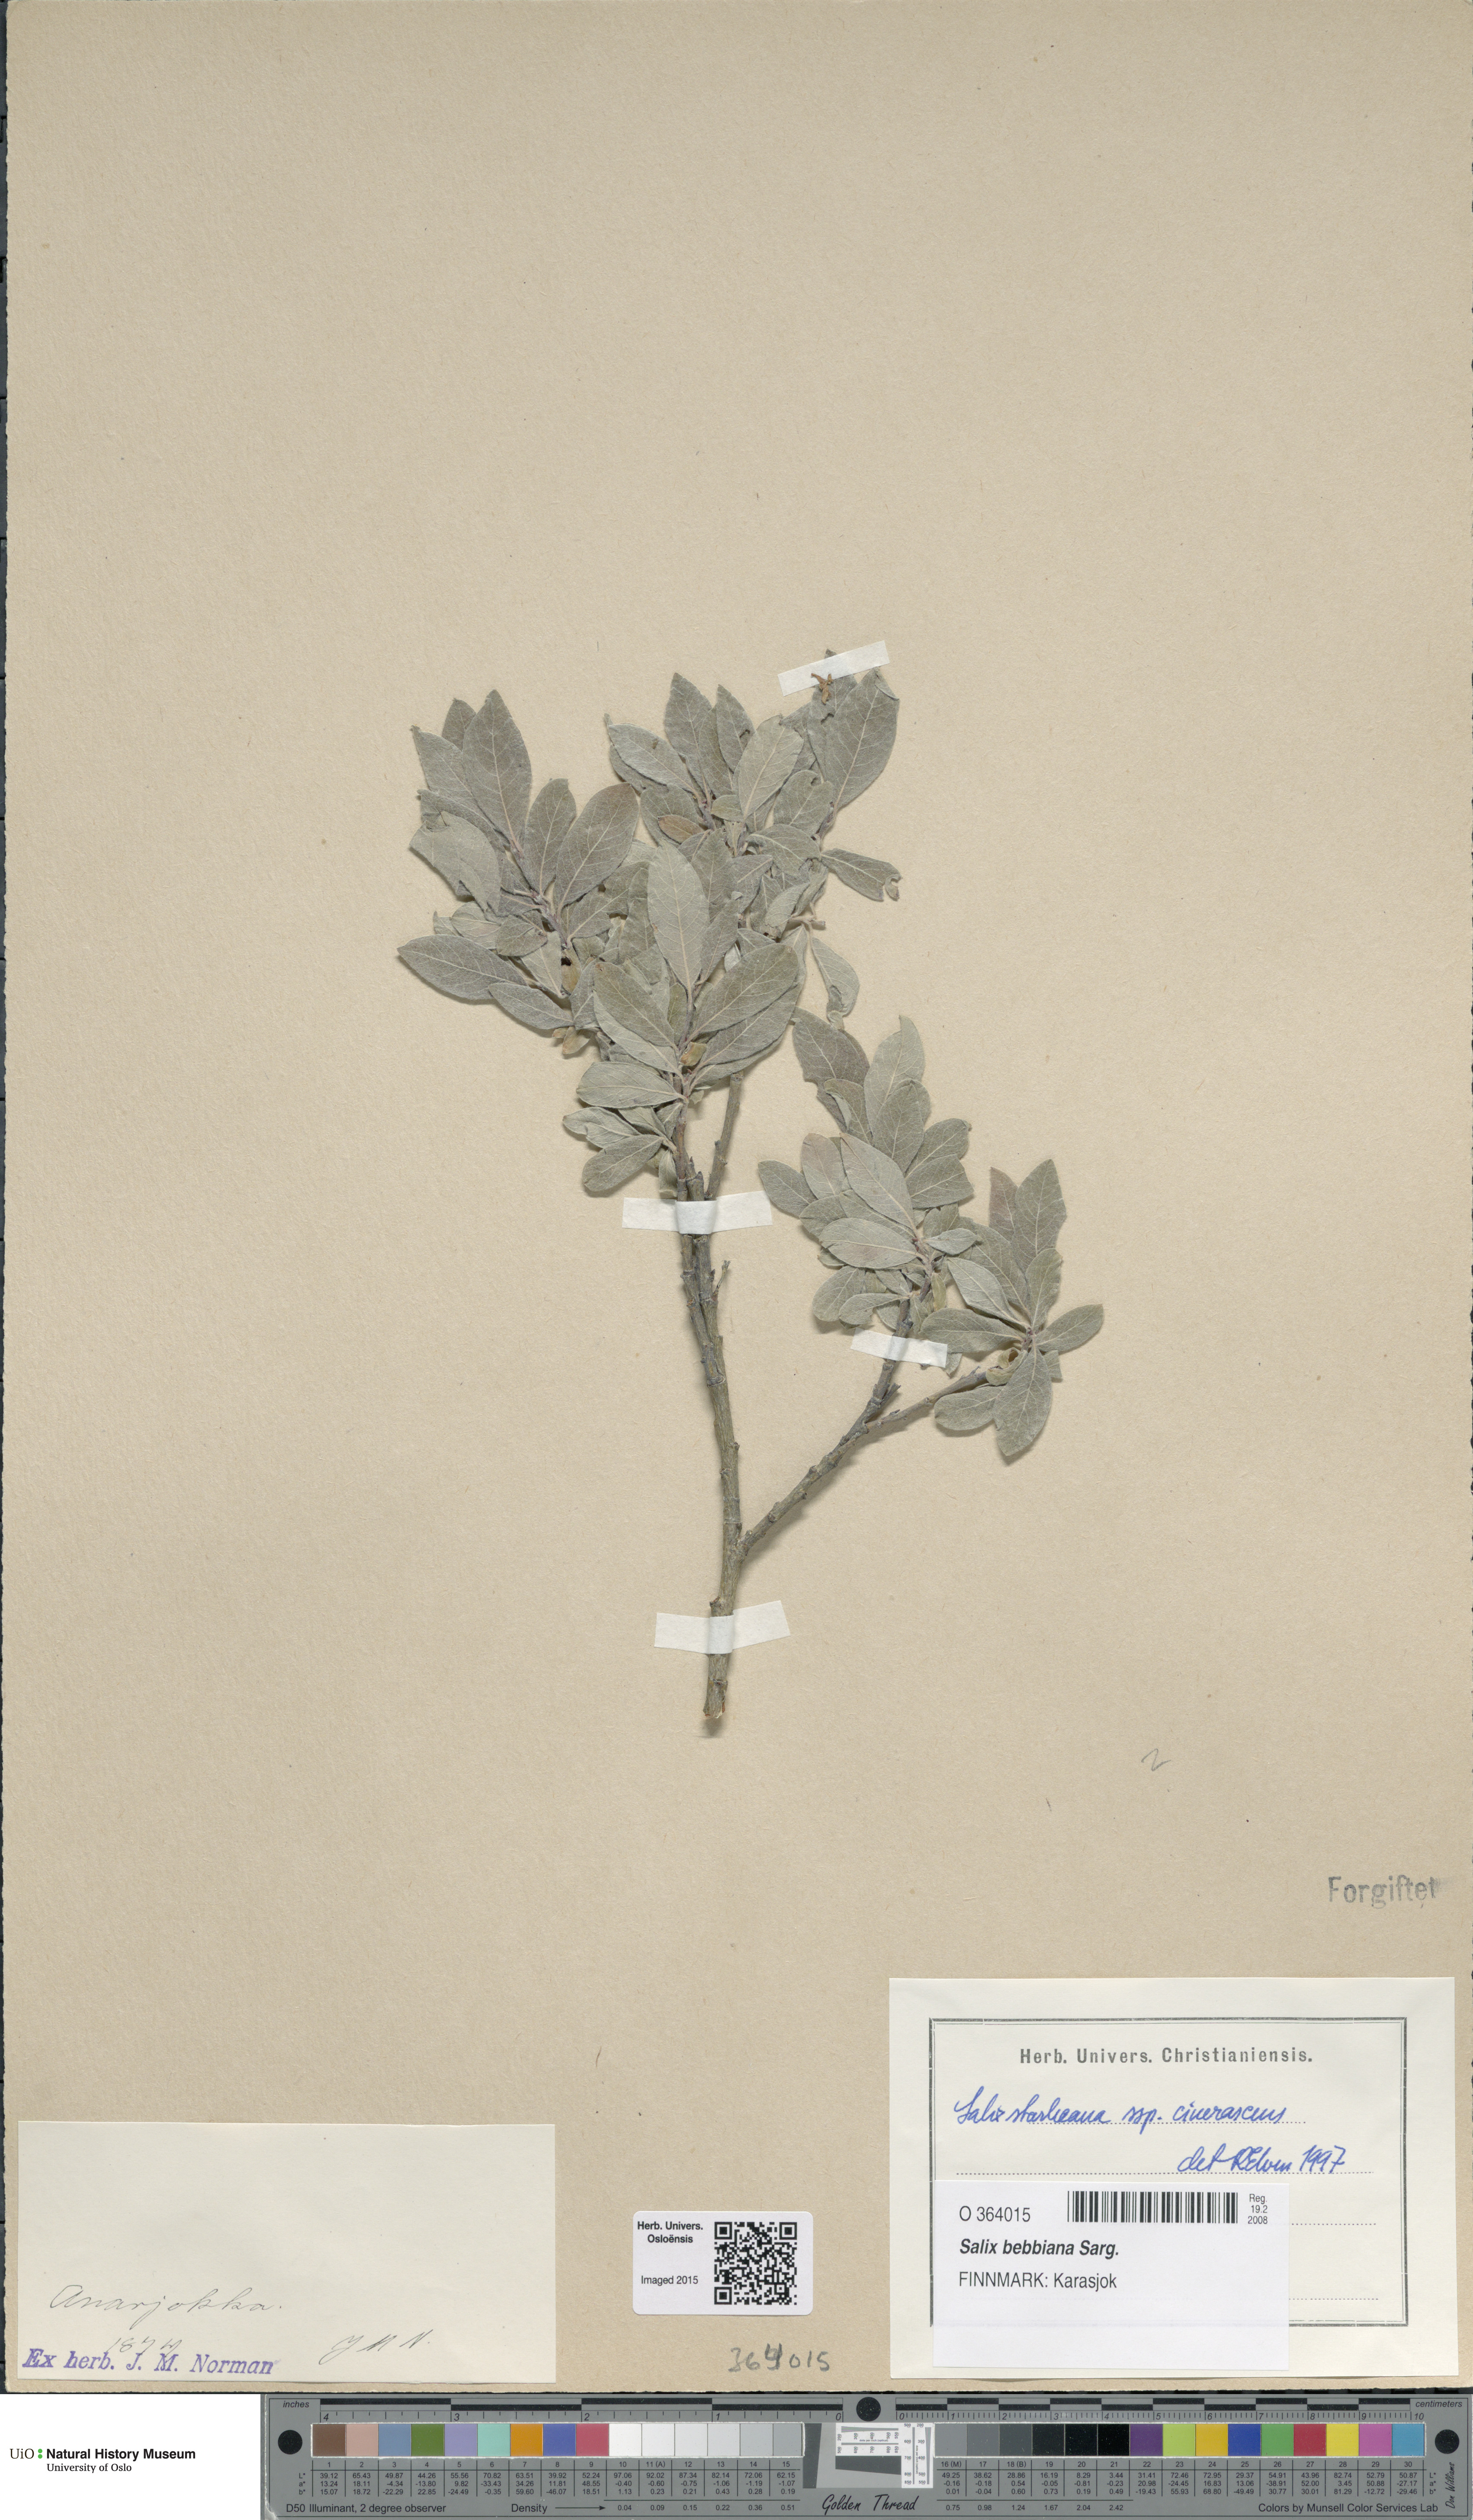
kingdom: Plantae
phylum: Tracheophyta
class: Magnoliopsida
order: Malpighiales
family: Salicaceae
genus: Salix
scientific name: Salix bebbiana
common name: Bebb's willow
